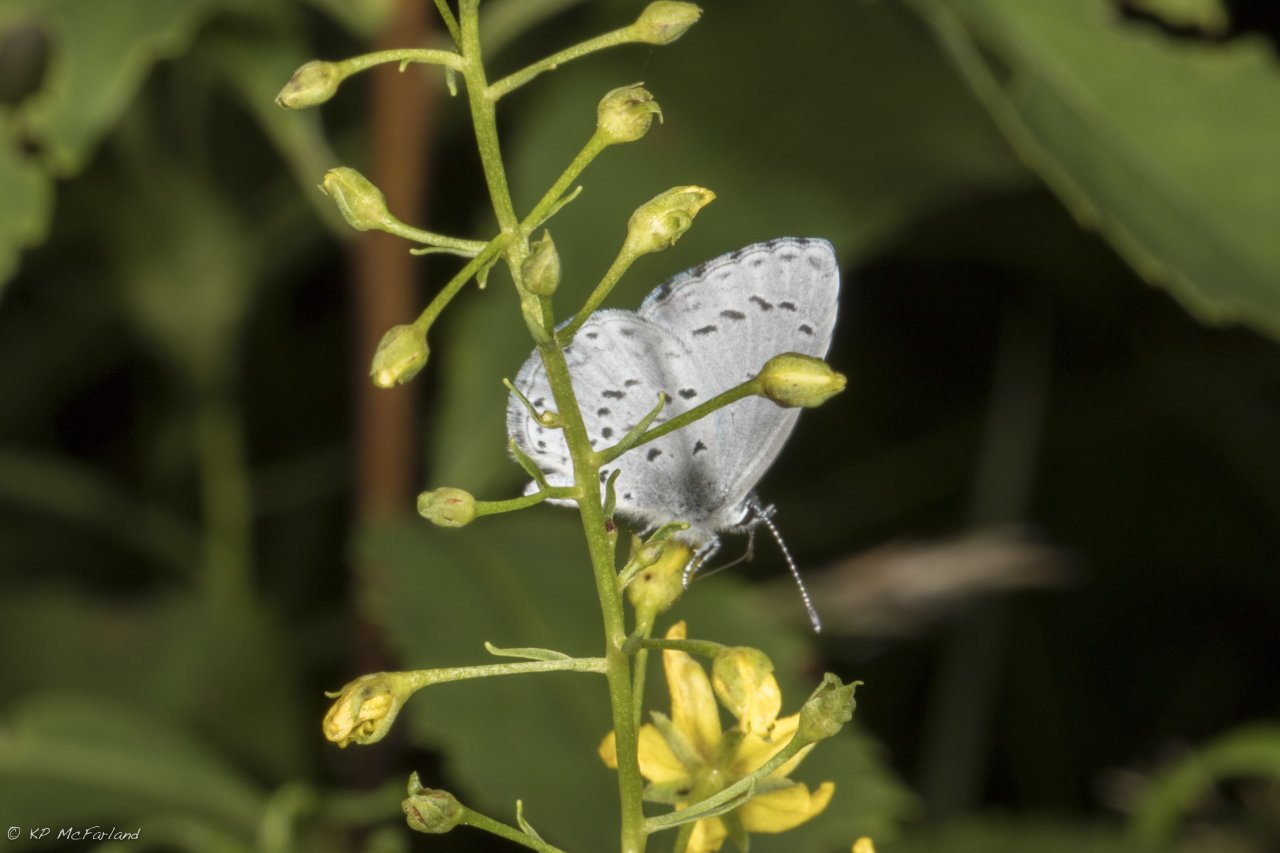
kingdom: Animalia
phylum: Arthropoda
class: Insecta
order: Lepidoptera
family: Lycaenidae
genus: Cyaniris
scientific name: Cyaniris neglecta
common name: Summer Azure
